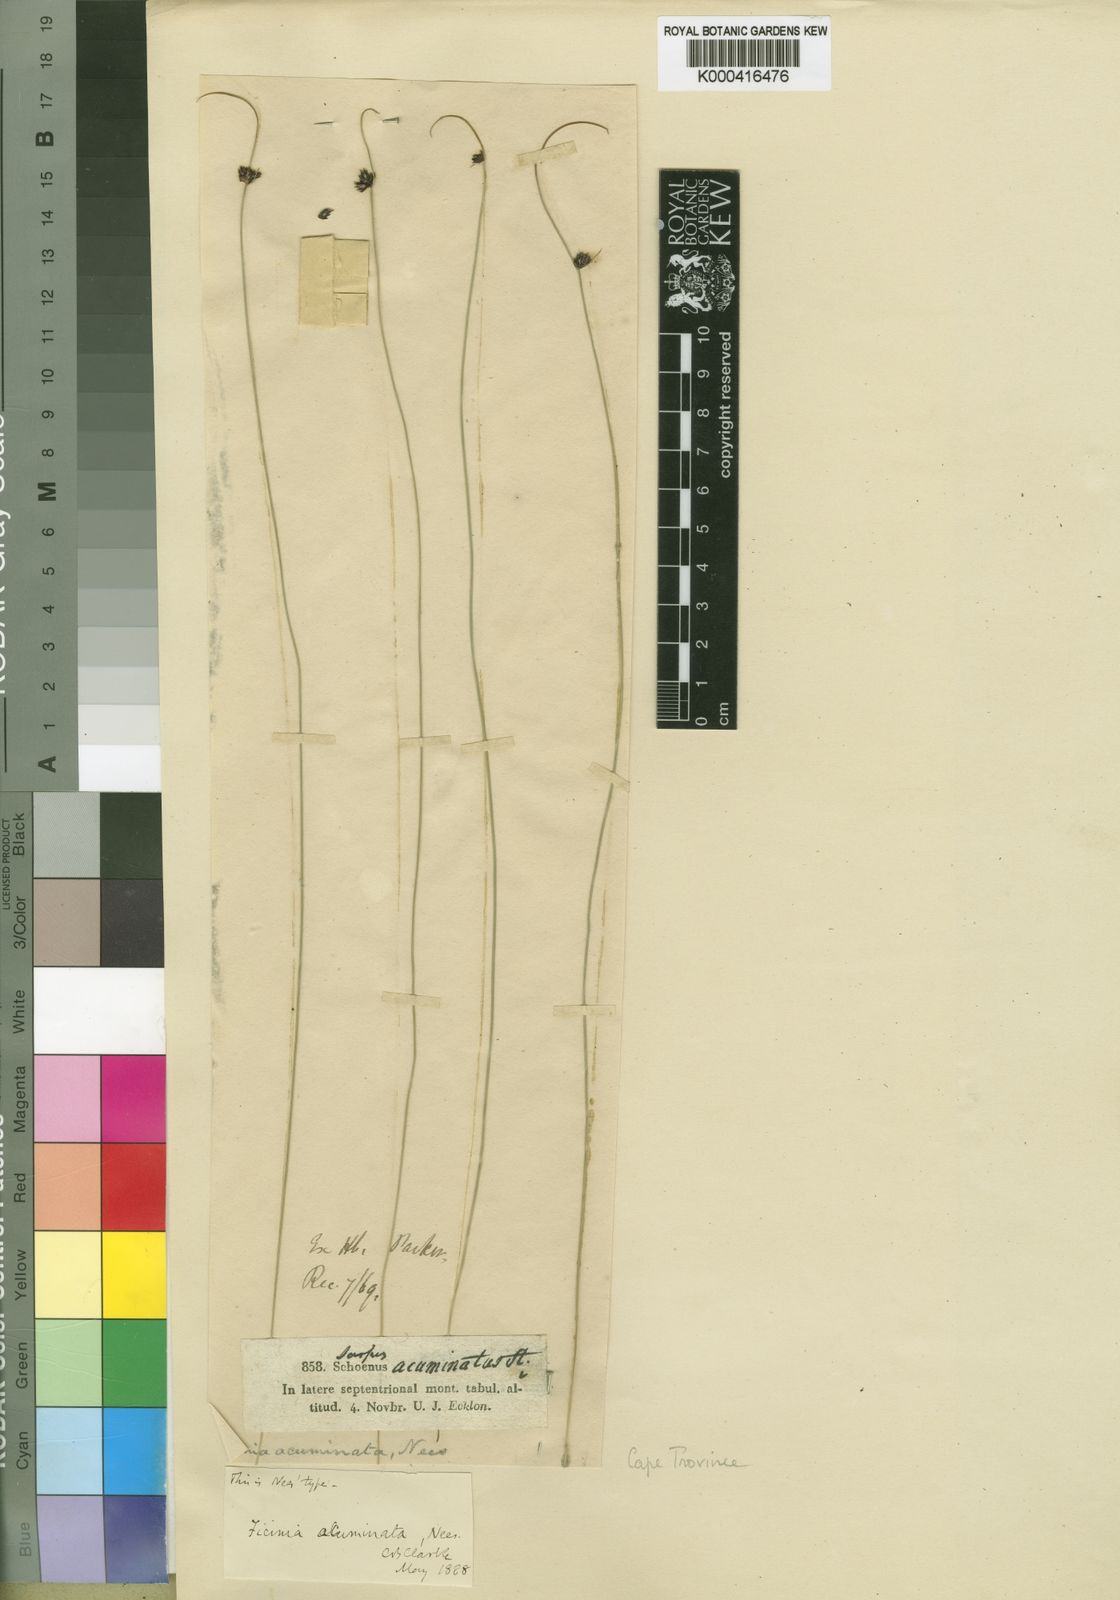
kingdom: Plantae
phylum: Tracheophyta
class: Liliopsida
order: Poales
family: Cyperaceae
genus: Ficinia
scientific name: Ficinia acuminata
